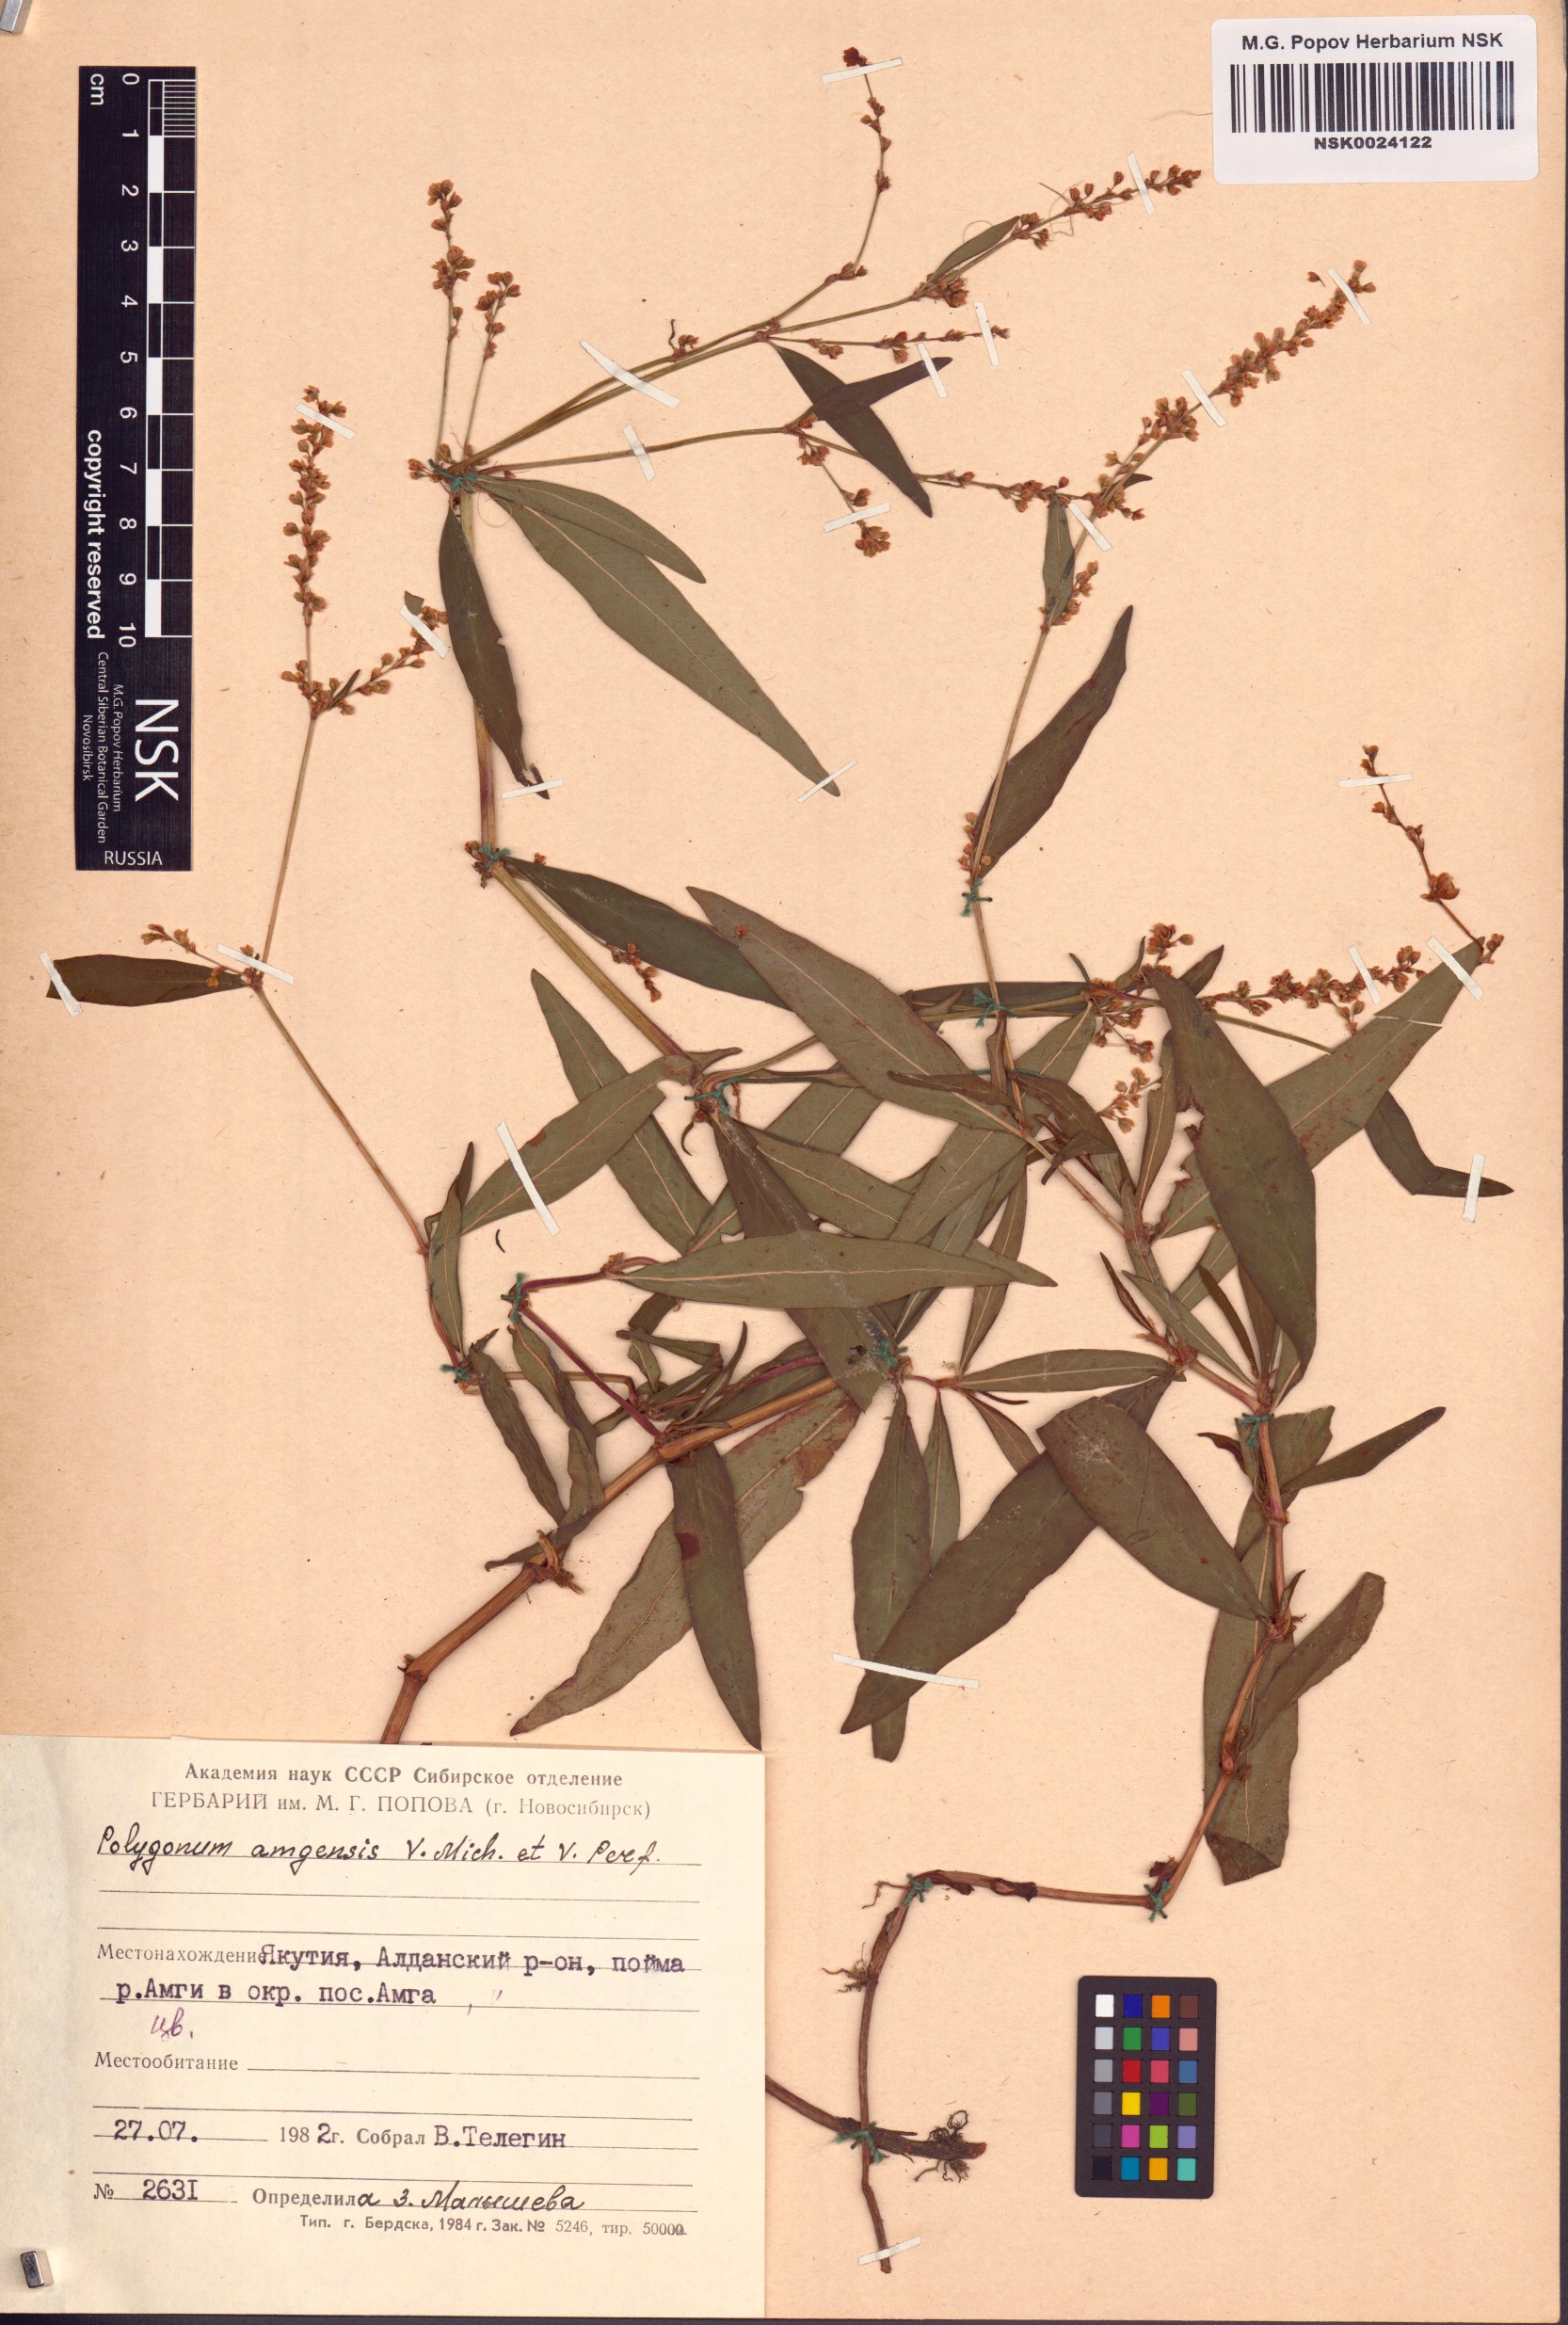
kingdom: Plantae
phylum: Tracheophyta
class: Magnoliopsida
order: Caryophyllales
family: Polygonaceae
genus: Polygonum
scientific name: Polygonum amgense
